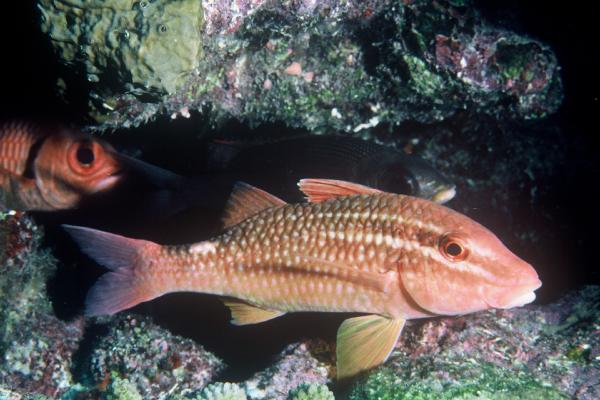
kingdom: Animalia
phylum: Chordata
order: Perciformes
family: Mullidae
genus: Parupeneus
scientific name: Parupeneus ciliatus
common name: White-lined goatfish
